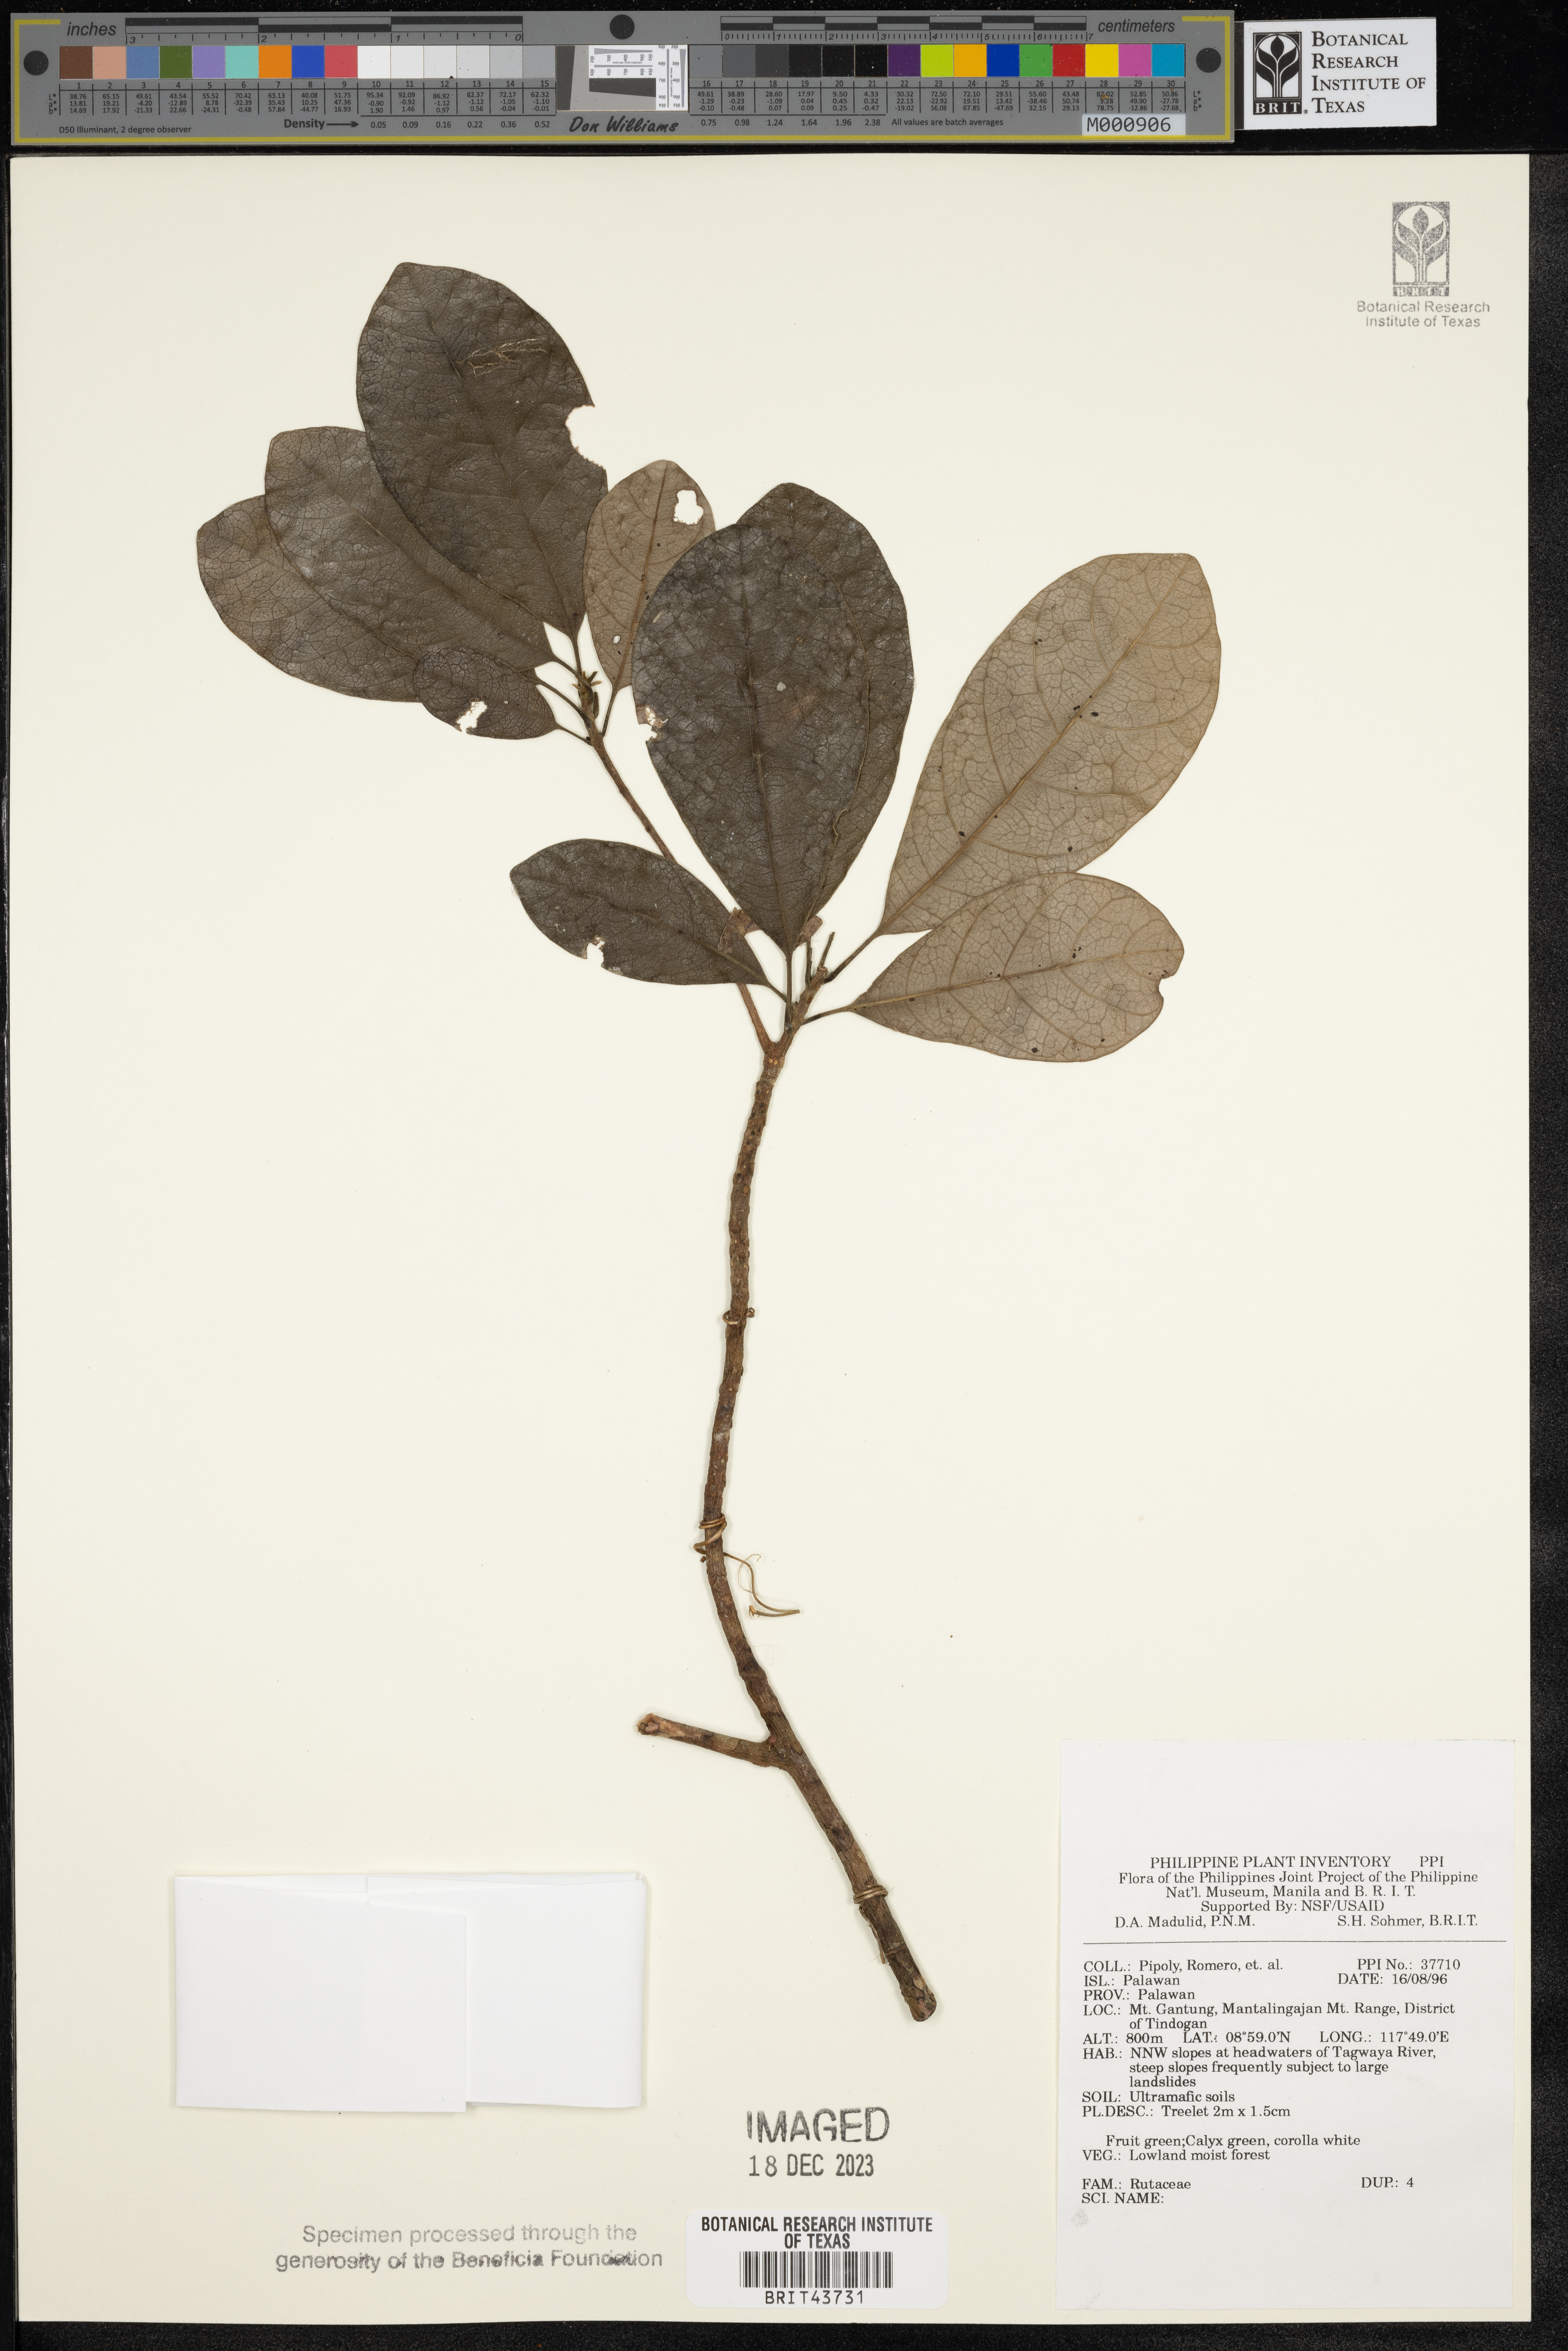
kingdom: Plantae
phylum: Tracheophyta
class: Magnoliopsida
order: Sapindales
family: Rutaceae
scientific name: Rutaceae
